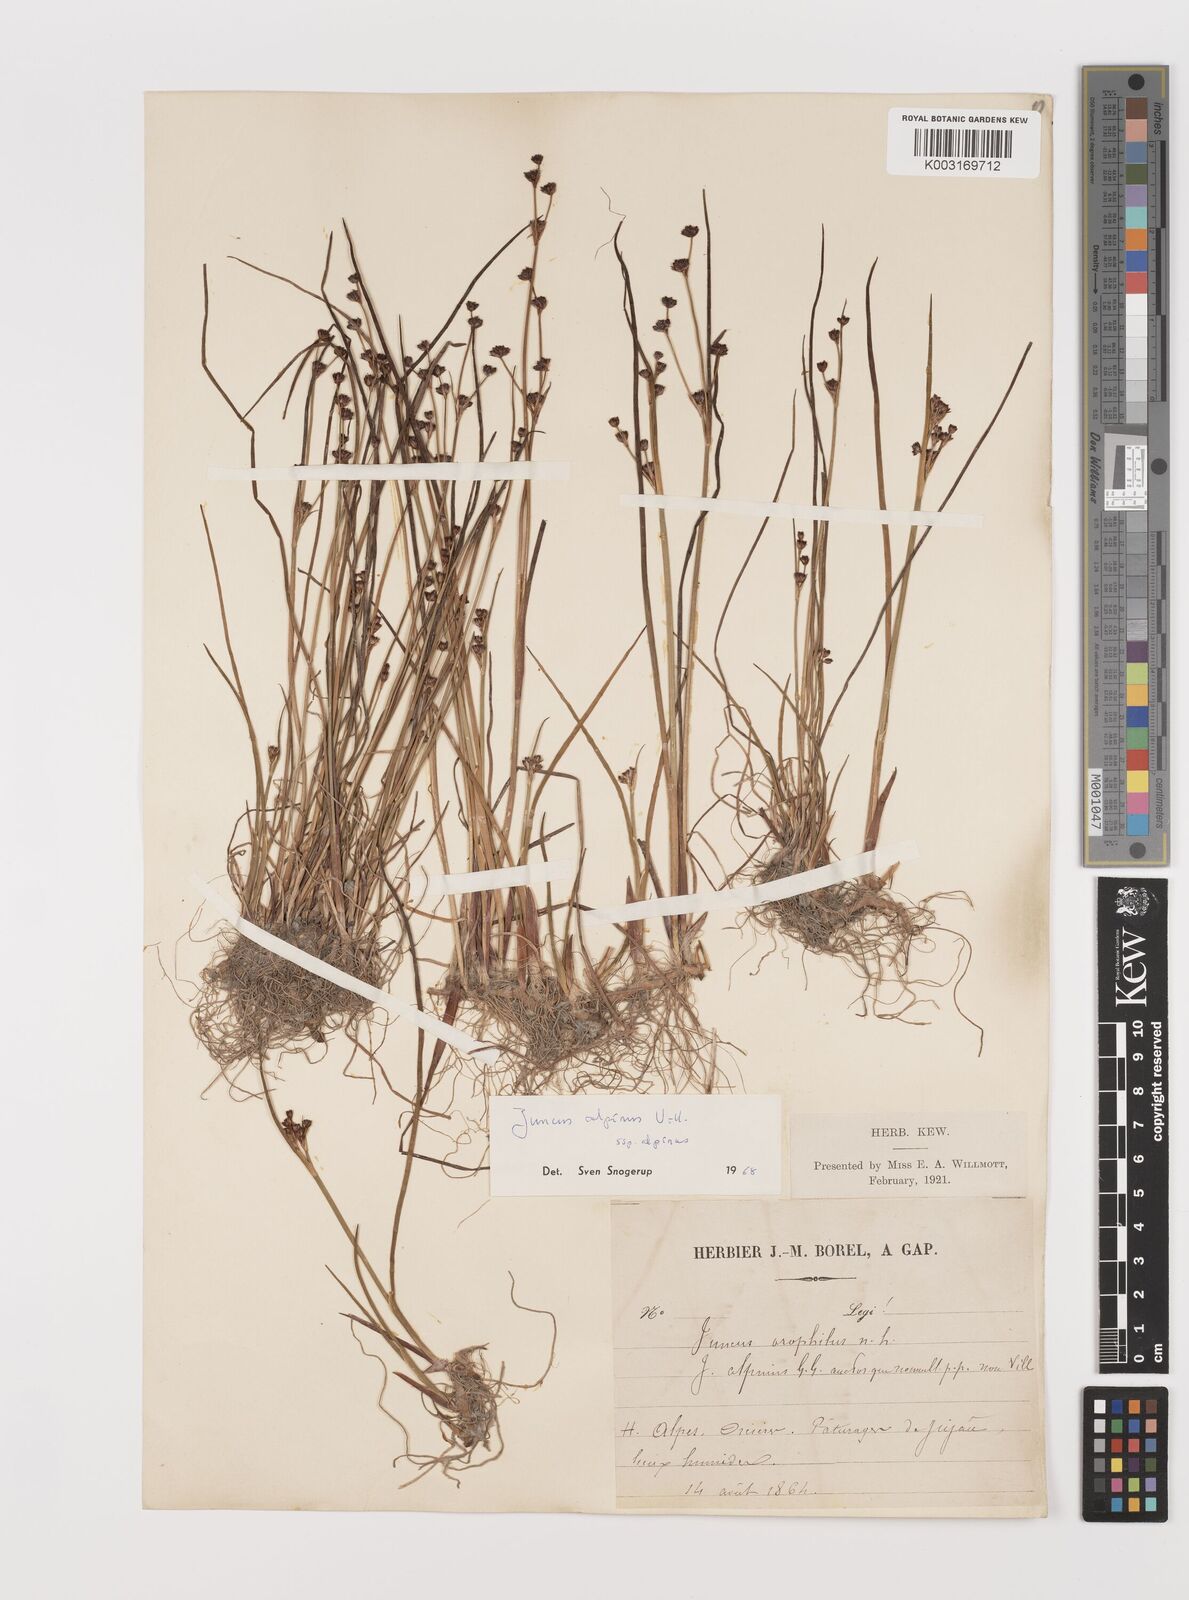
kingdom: Plantae
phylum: Tracheophyta
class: Liliopsida
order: Poales
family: Juncaceae
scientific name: Juncaceae
